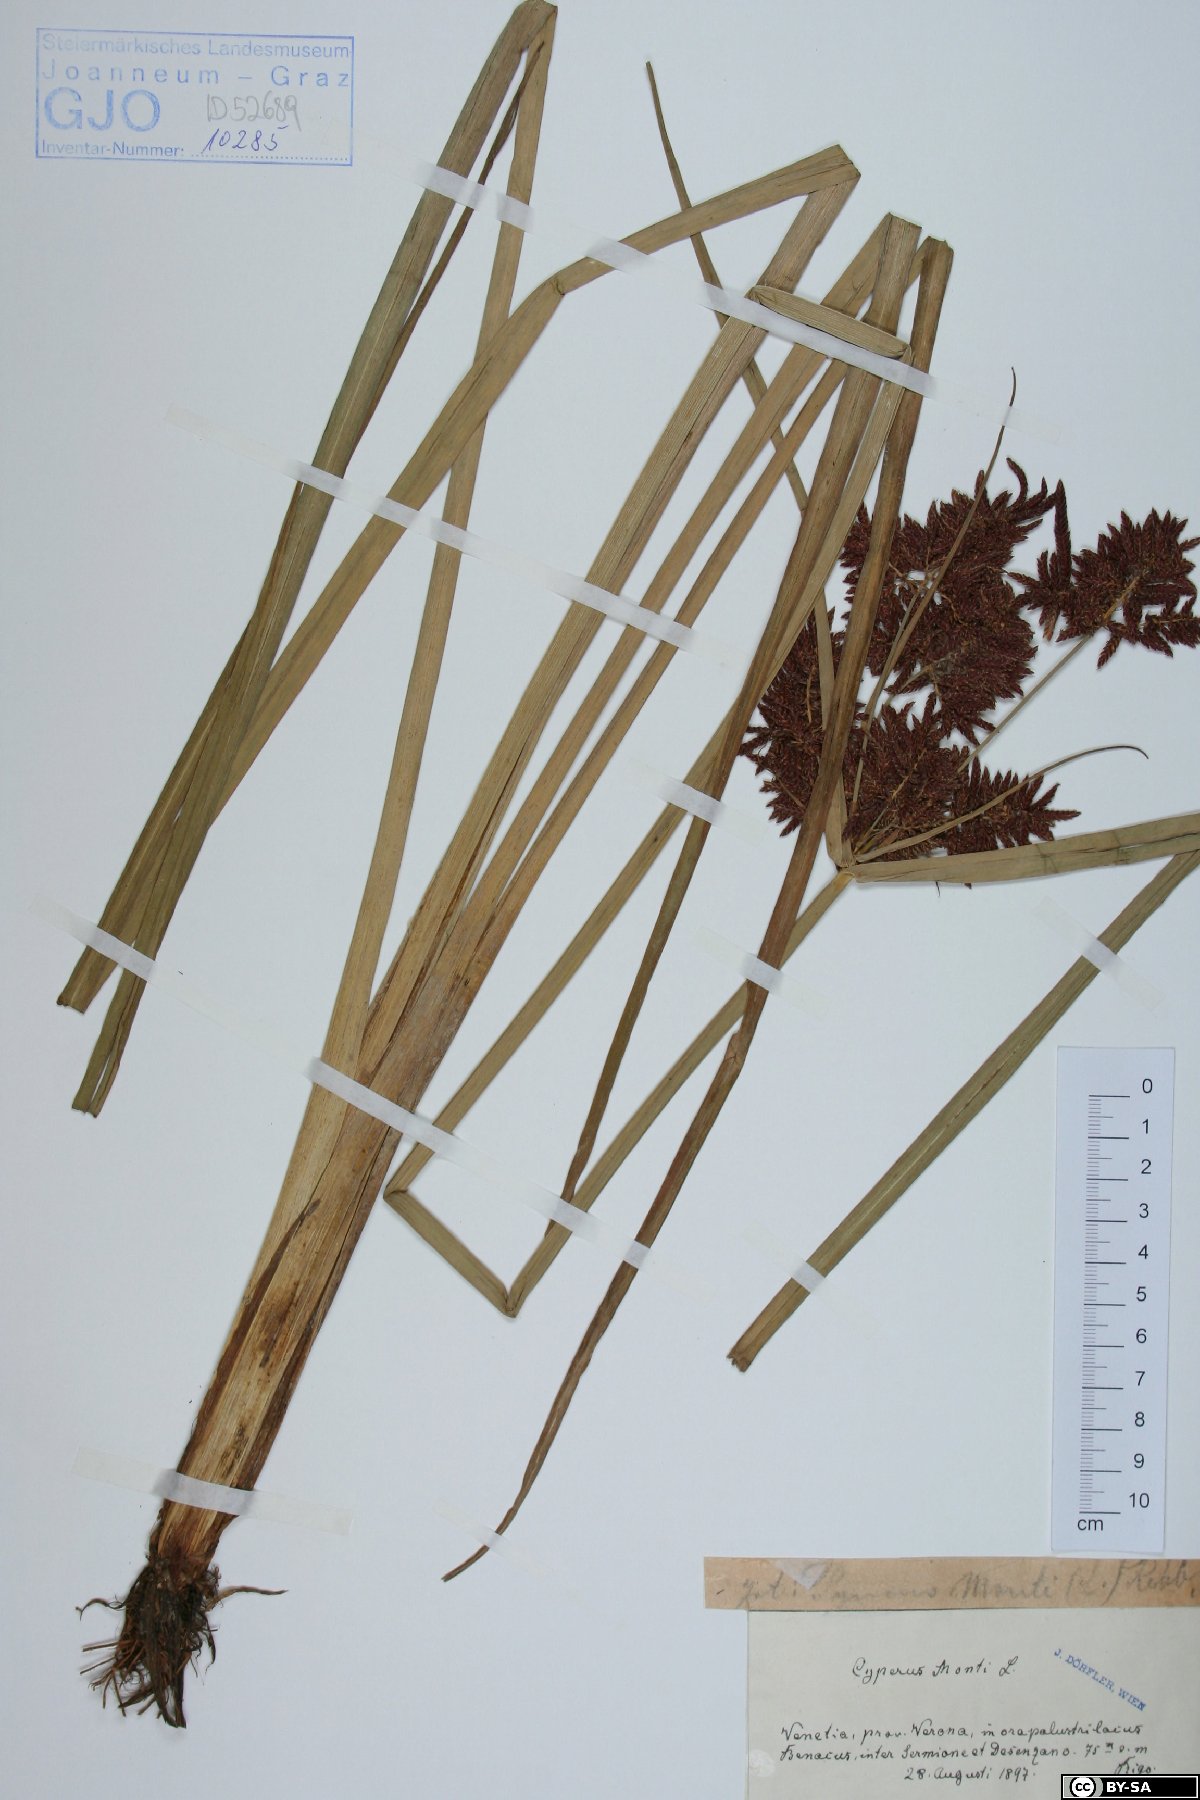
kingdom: Plantae
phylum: Tracheophyta
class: Liliopsida
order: Poales
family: Cyperaceae
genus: Cyperus
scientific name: Cyperus serotinus
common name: Tidalmarsh flatsedge
